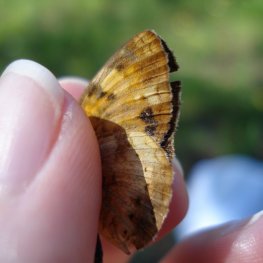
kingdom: Animalia
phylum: Arthropoda
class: Insecta
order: Lepidoptera
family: Nymphalidae
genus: Phyciodes
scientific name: Phyciodes tharos
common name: Northern Crescent
